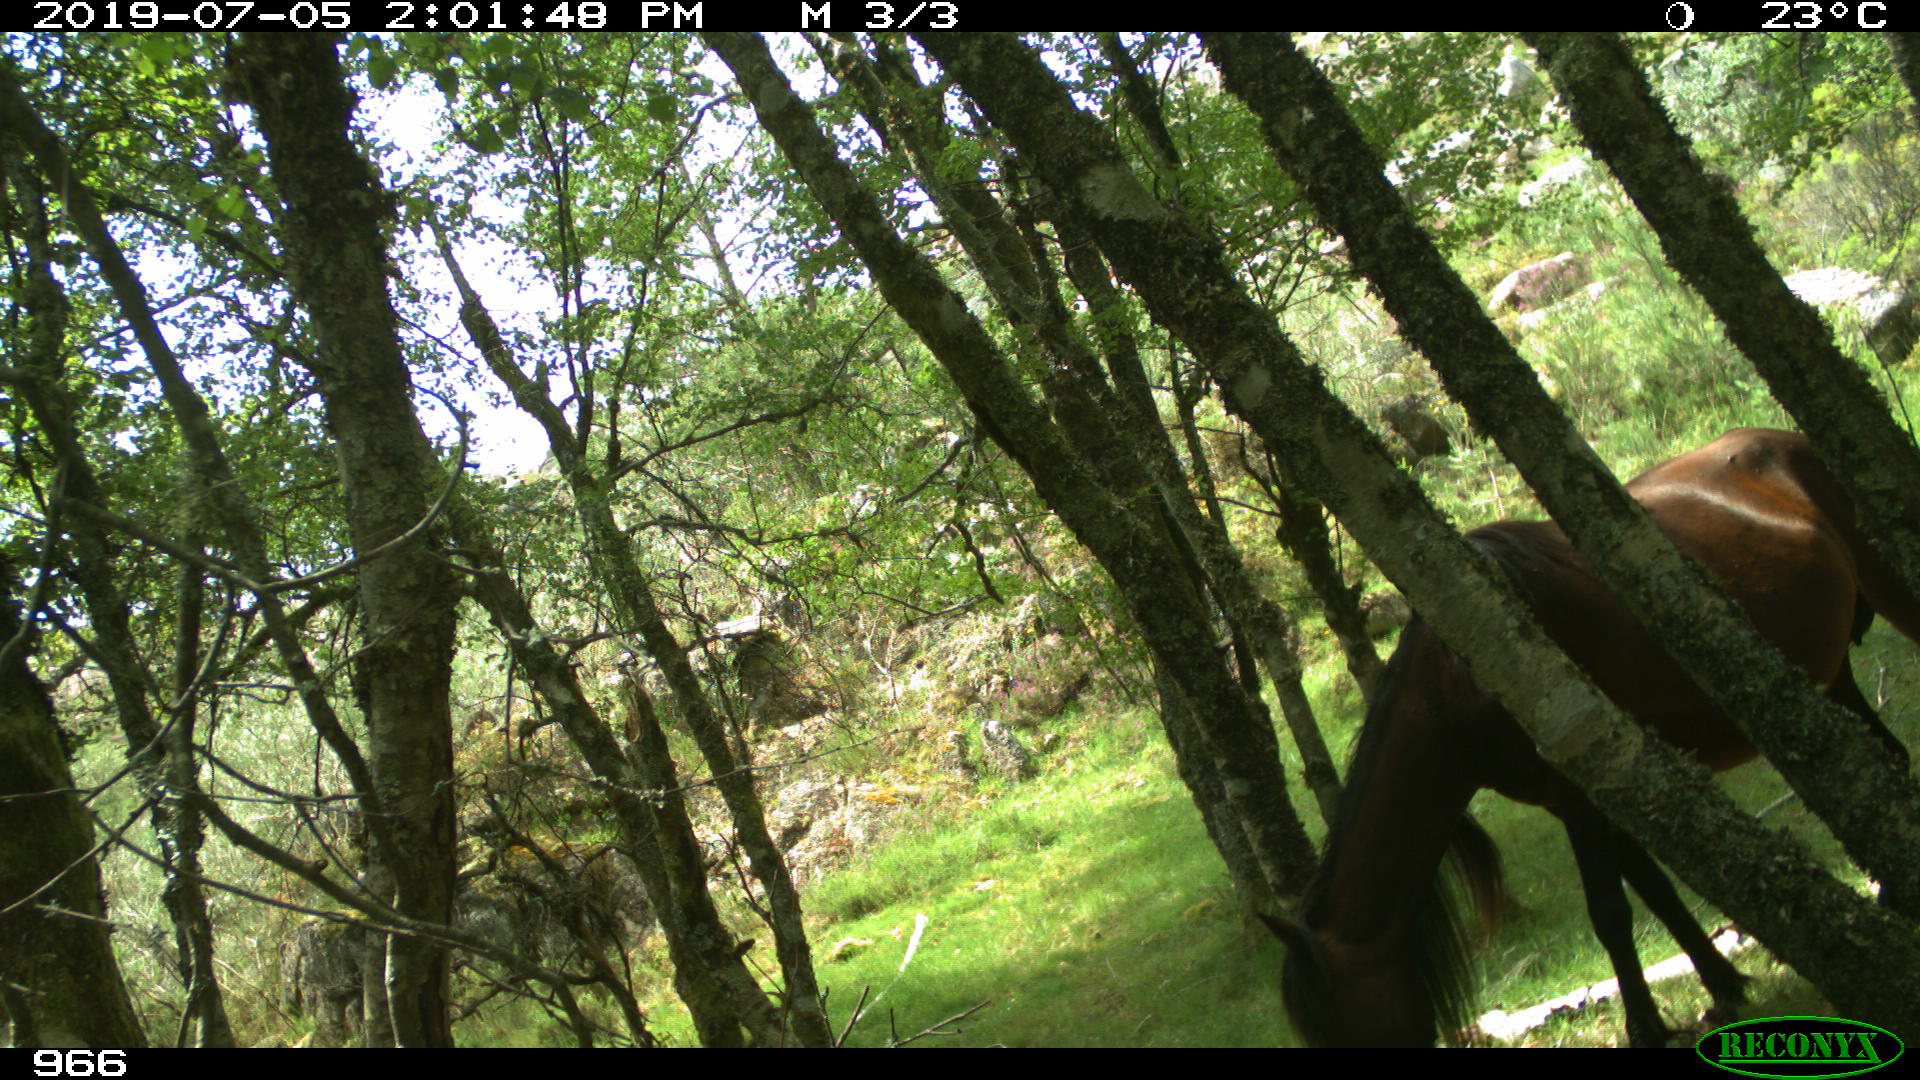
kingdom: Animalia
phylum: Chordata
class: Mammalia
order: Perissodactyla
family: Equidae
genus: Equus
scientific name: Equus caballus
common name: Horse
